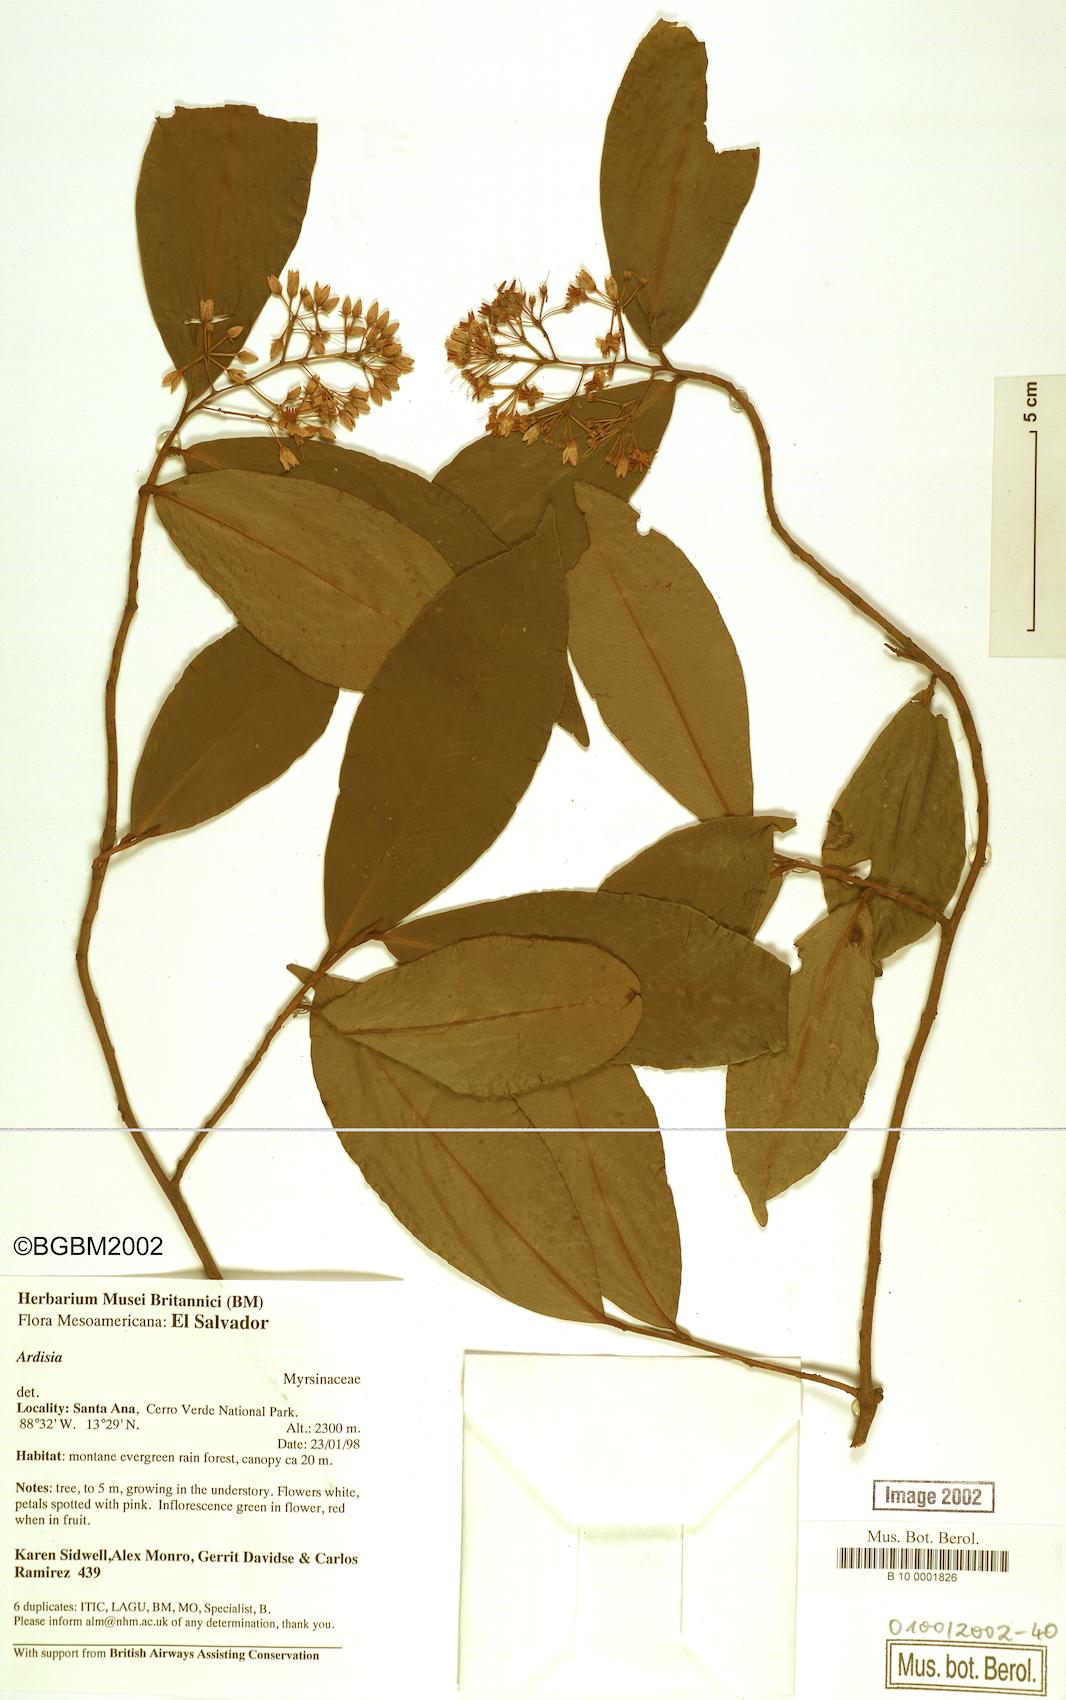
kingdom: Plantae
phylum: Tracheophyta
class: Magnoliopsida
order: Ericales
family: Primulaceae
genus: Ardisia
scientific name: Ardisia compressa
